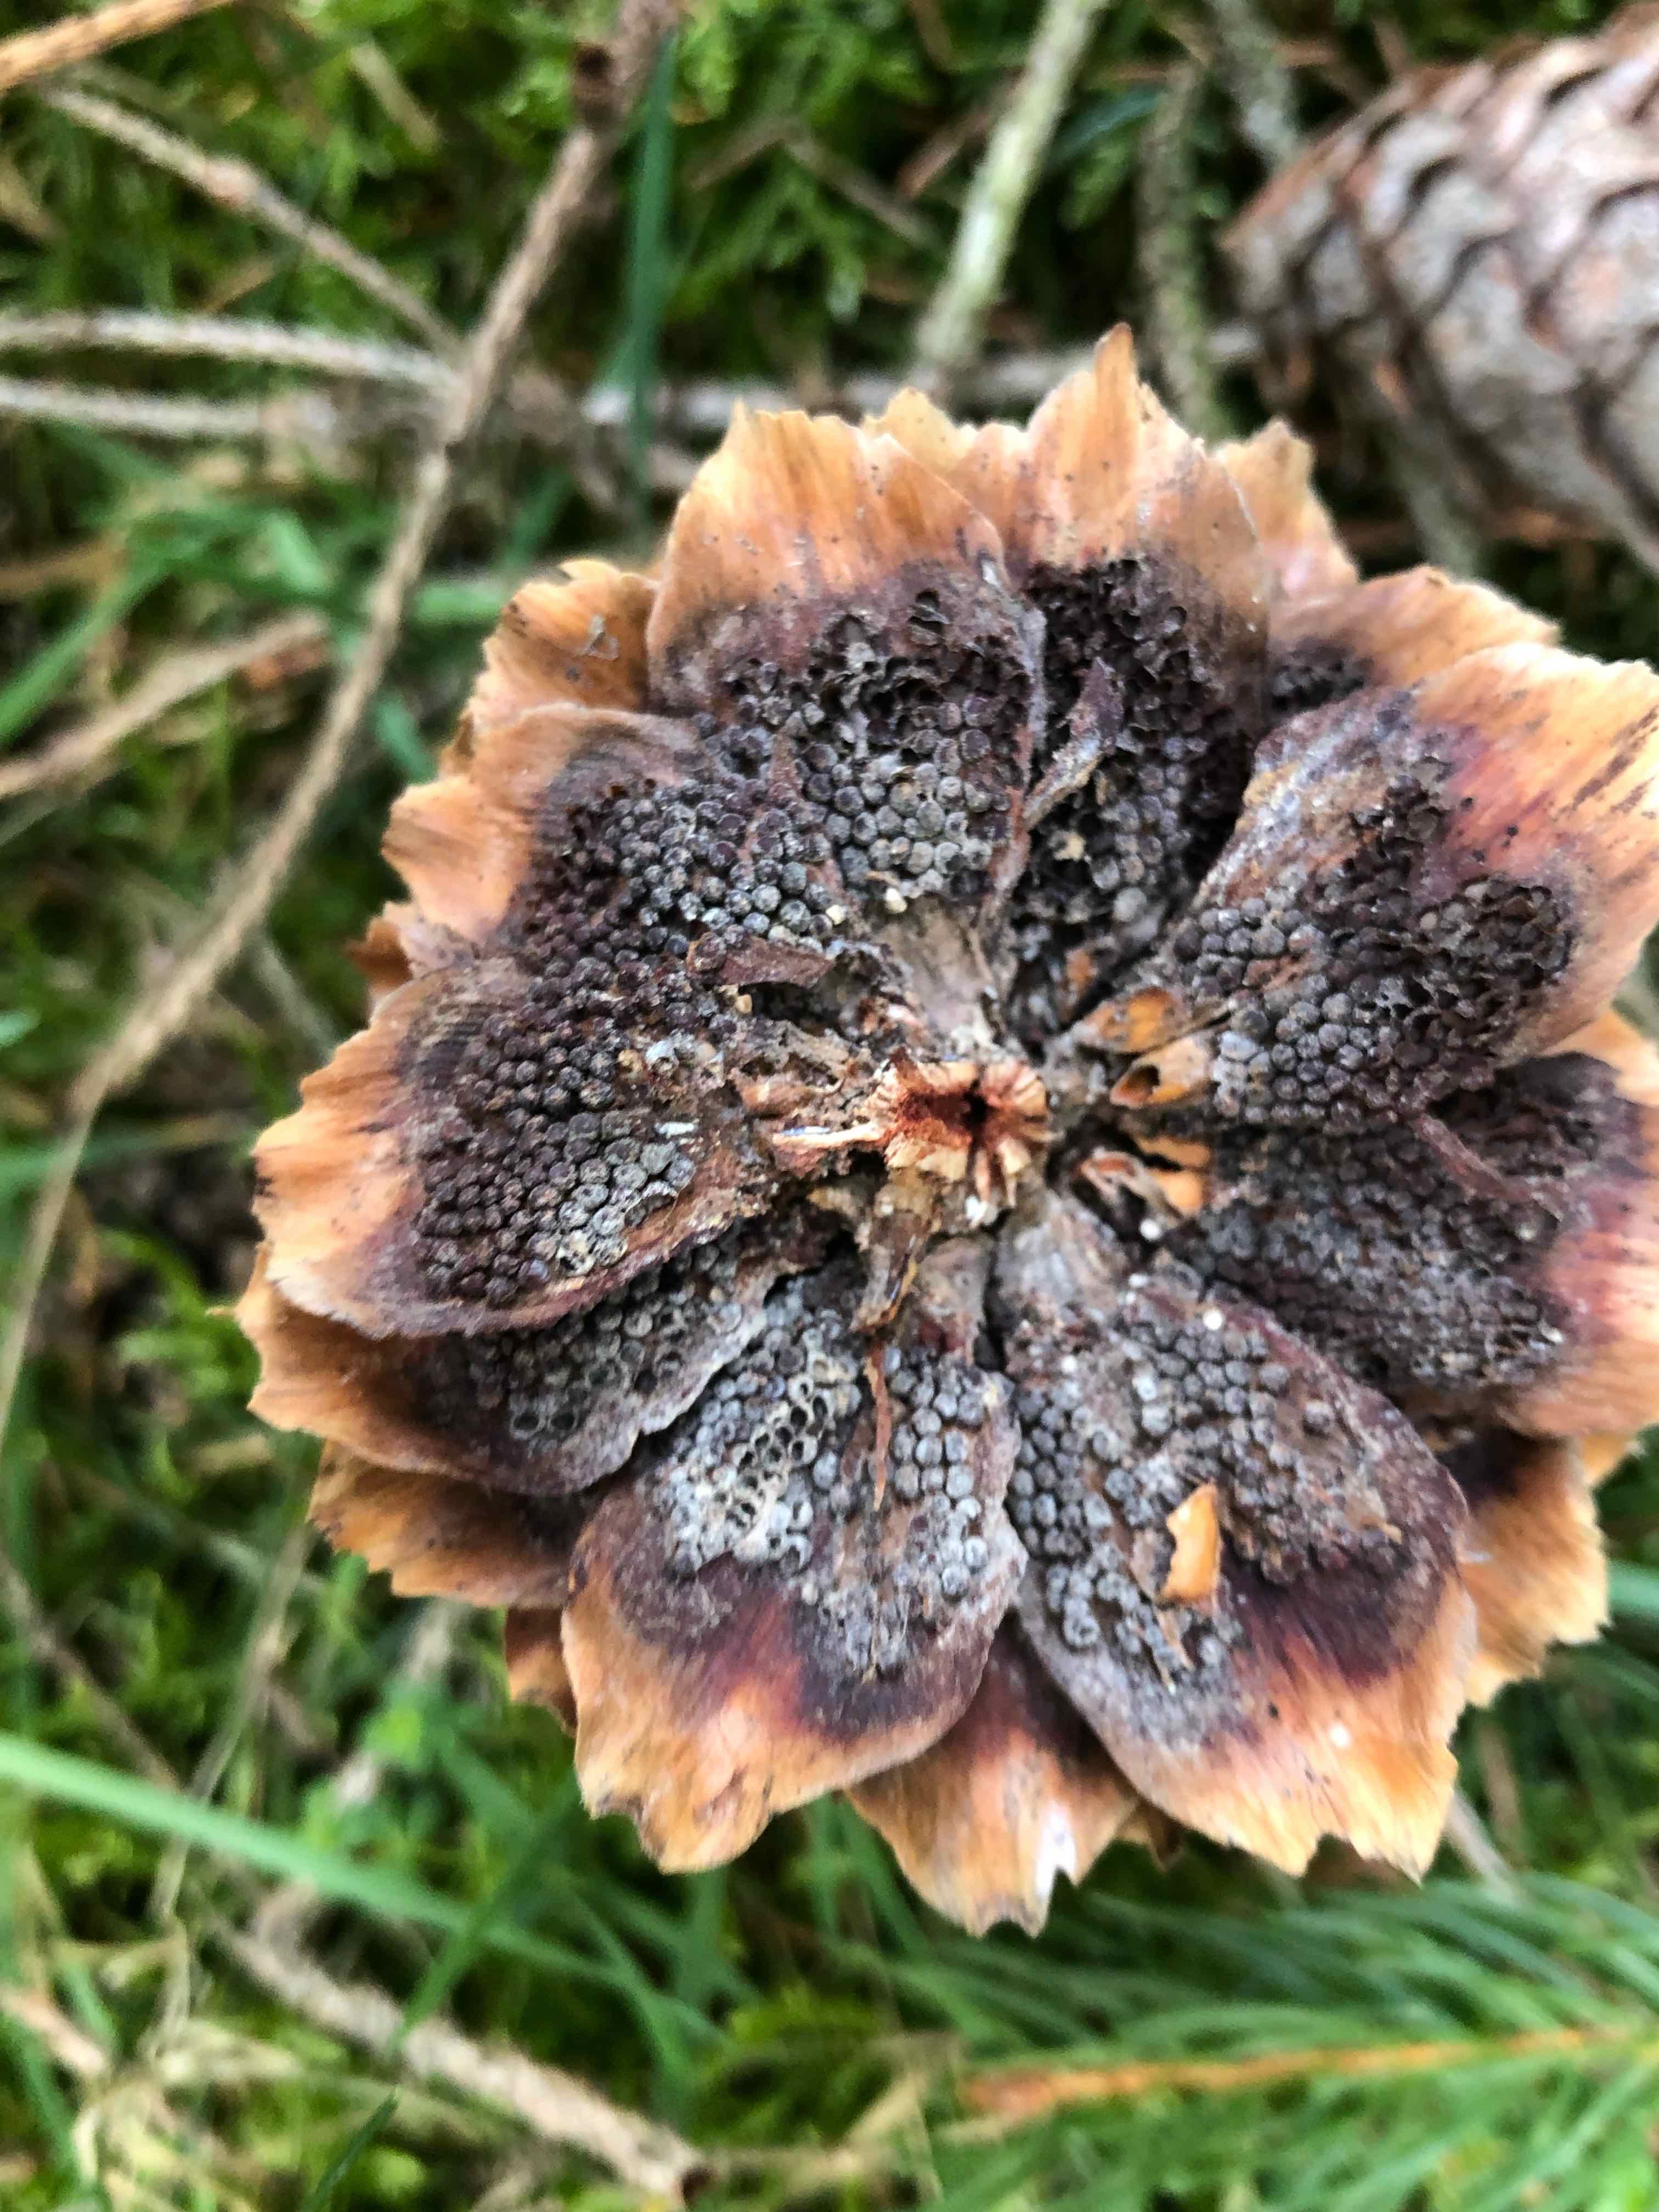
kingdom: Fungi
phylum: Basidiomycota
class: Pucciniomycetes
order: Pucciniales
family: Pucciniastraceae
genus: Thekopsora
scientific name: Thekopsora areolata
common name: grankogle-nålerust
